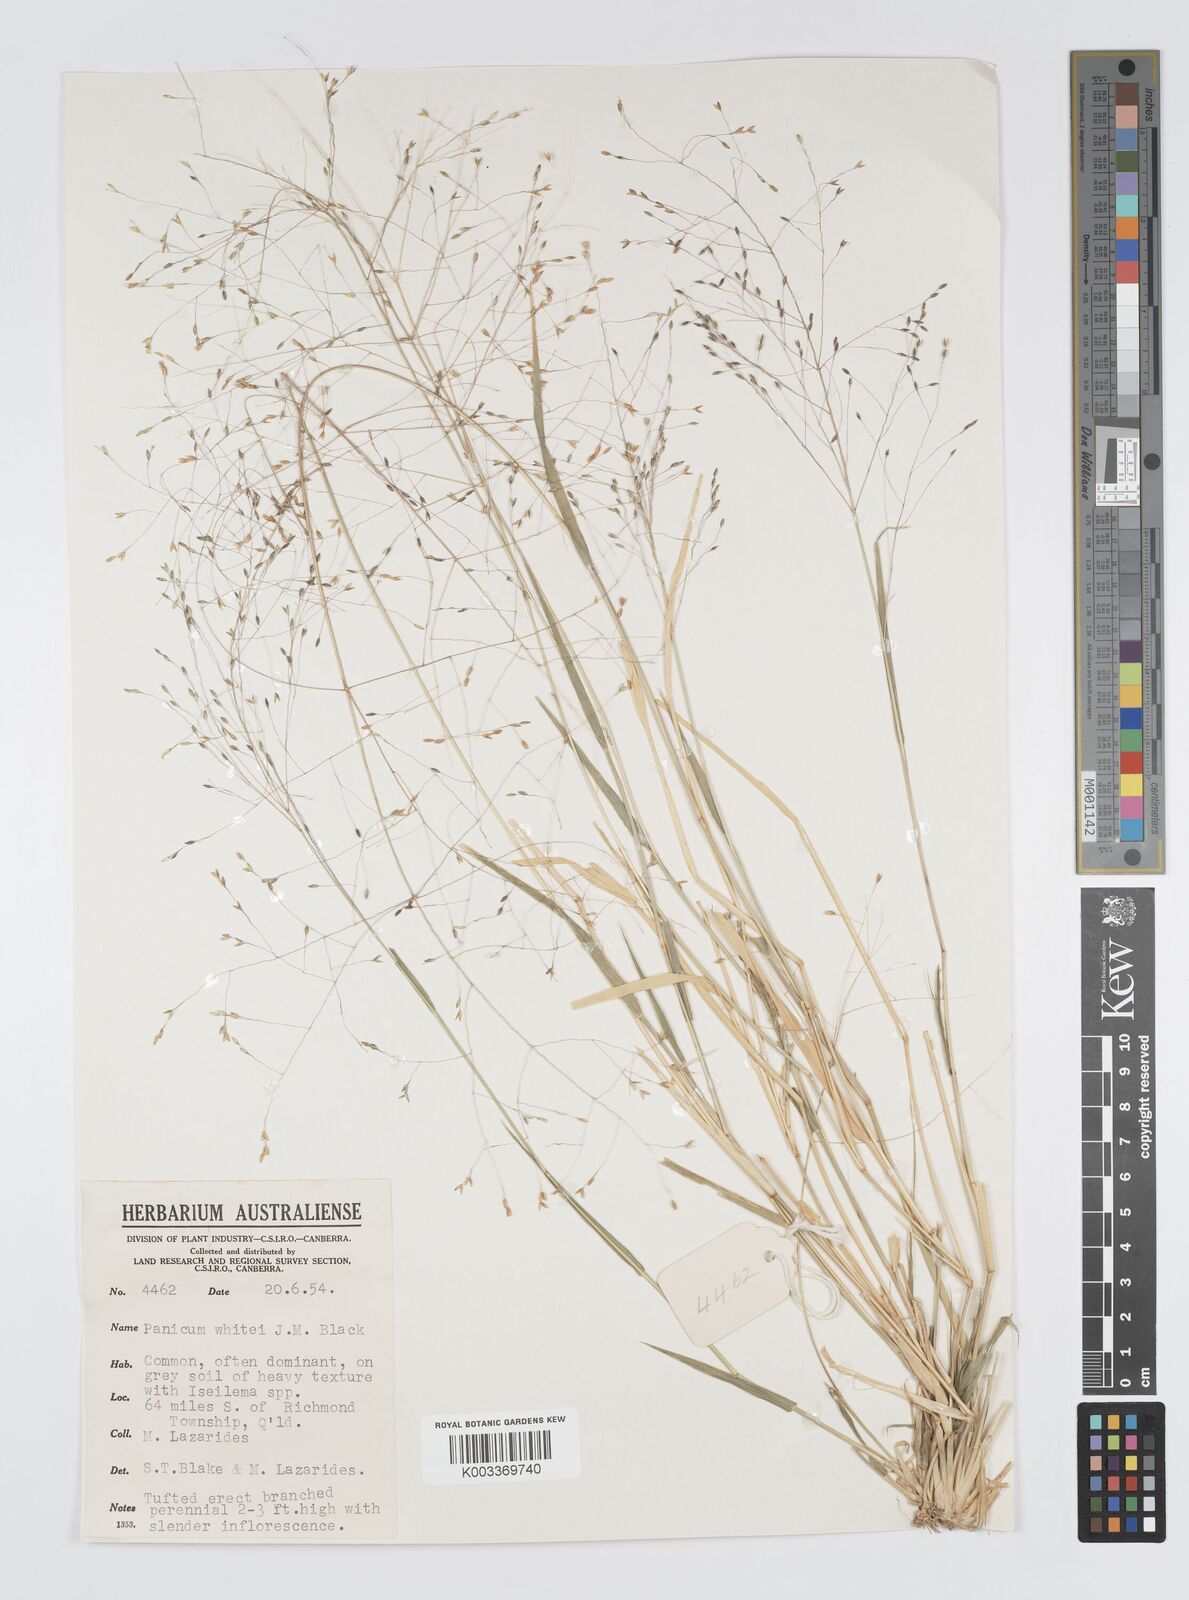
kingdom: Plantae
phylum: Tracheophyta
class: Liliopsida
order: Poales
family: Poaceae
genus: Panicum
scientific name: Panicum laevinode
